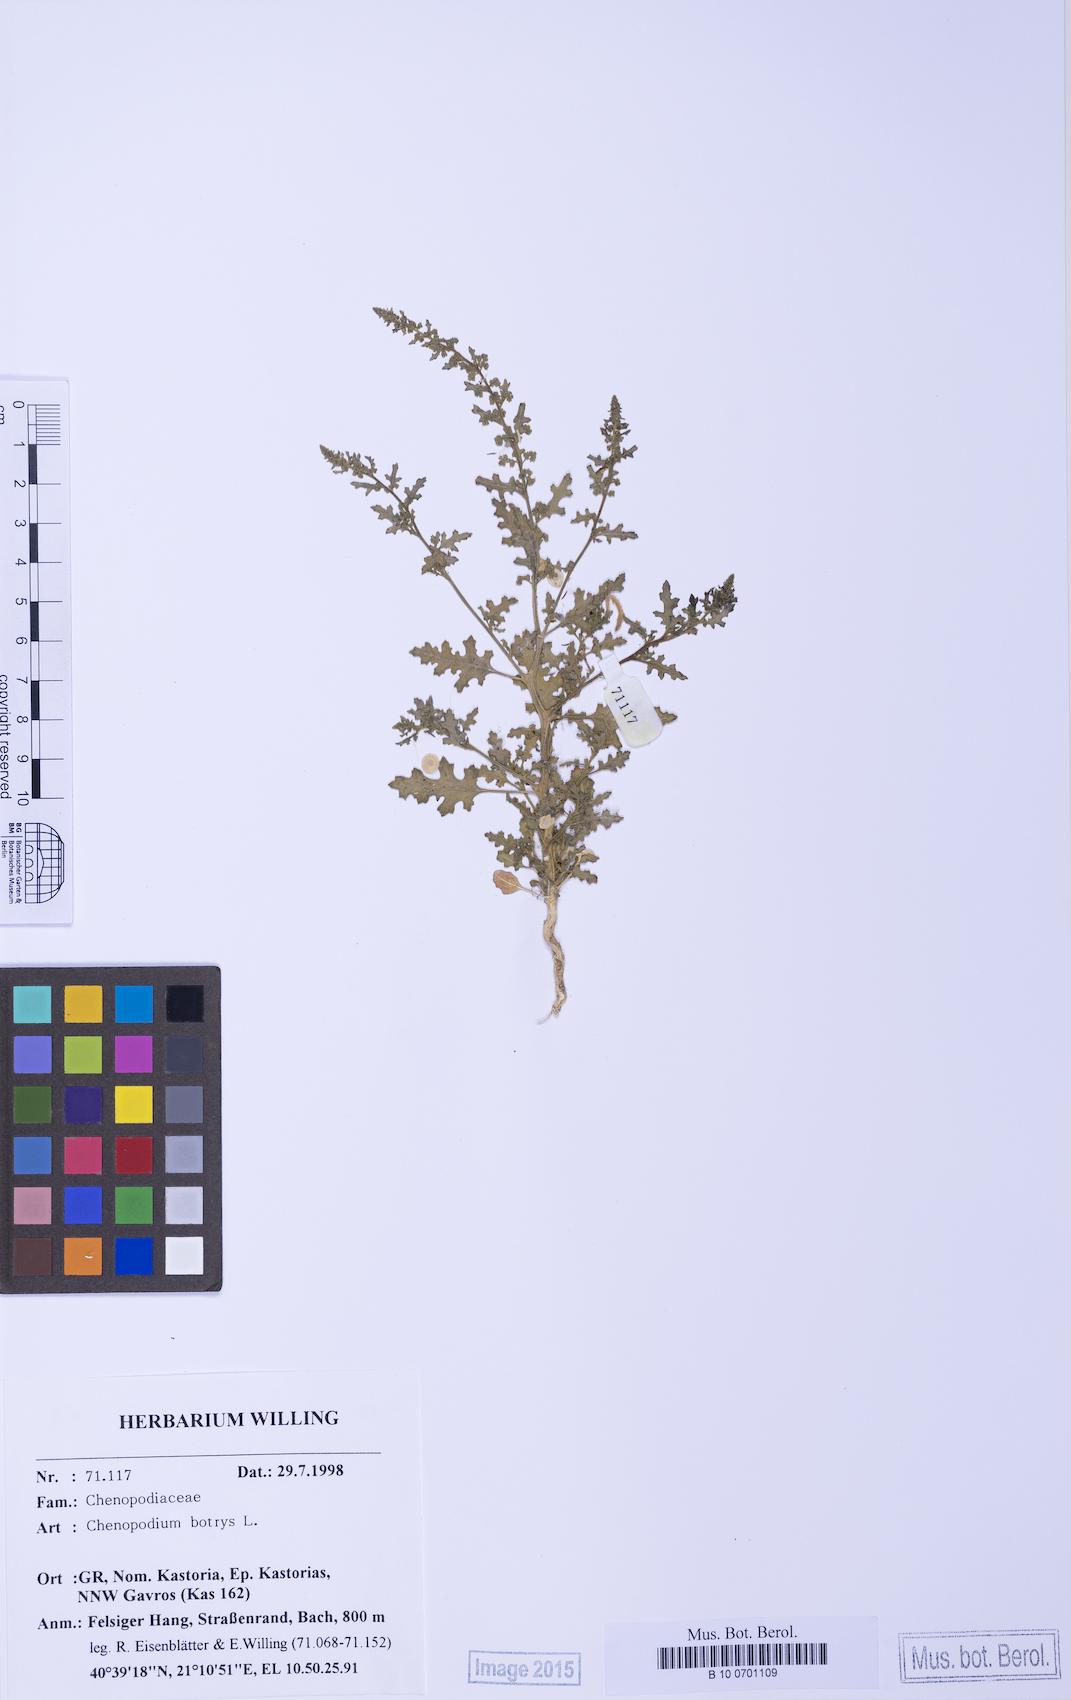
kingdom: Plantae
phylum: Tracheophyta
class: Magnoliopsida
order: Caryophyllales
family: Amaranthaceae
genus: Dysphania
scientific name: Dysphania botrys
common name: Feather-geranium
